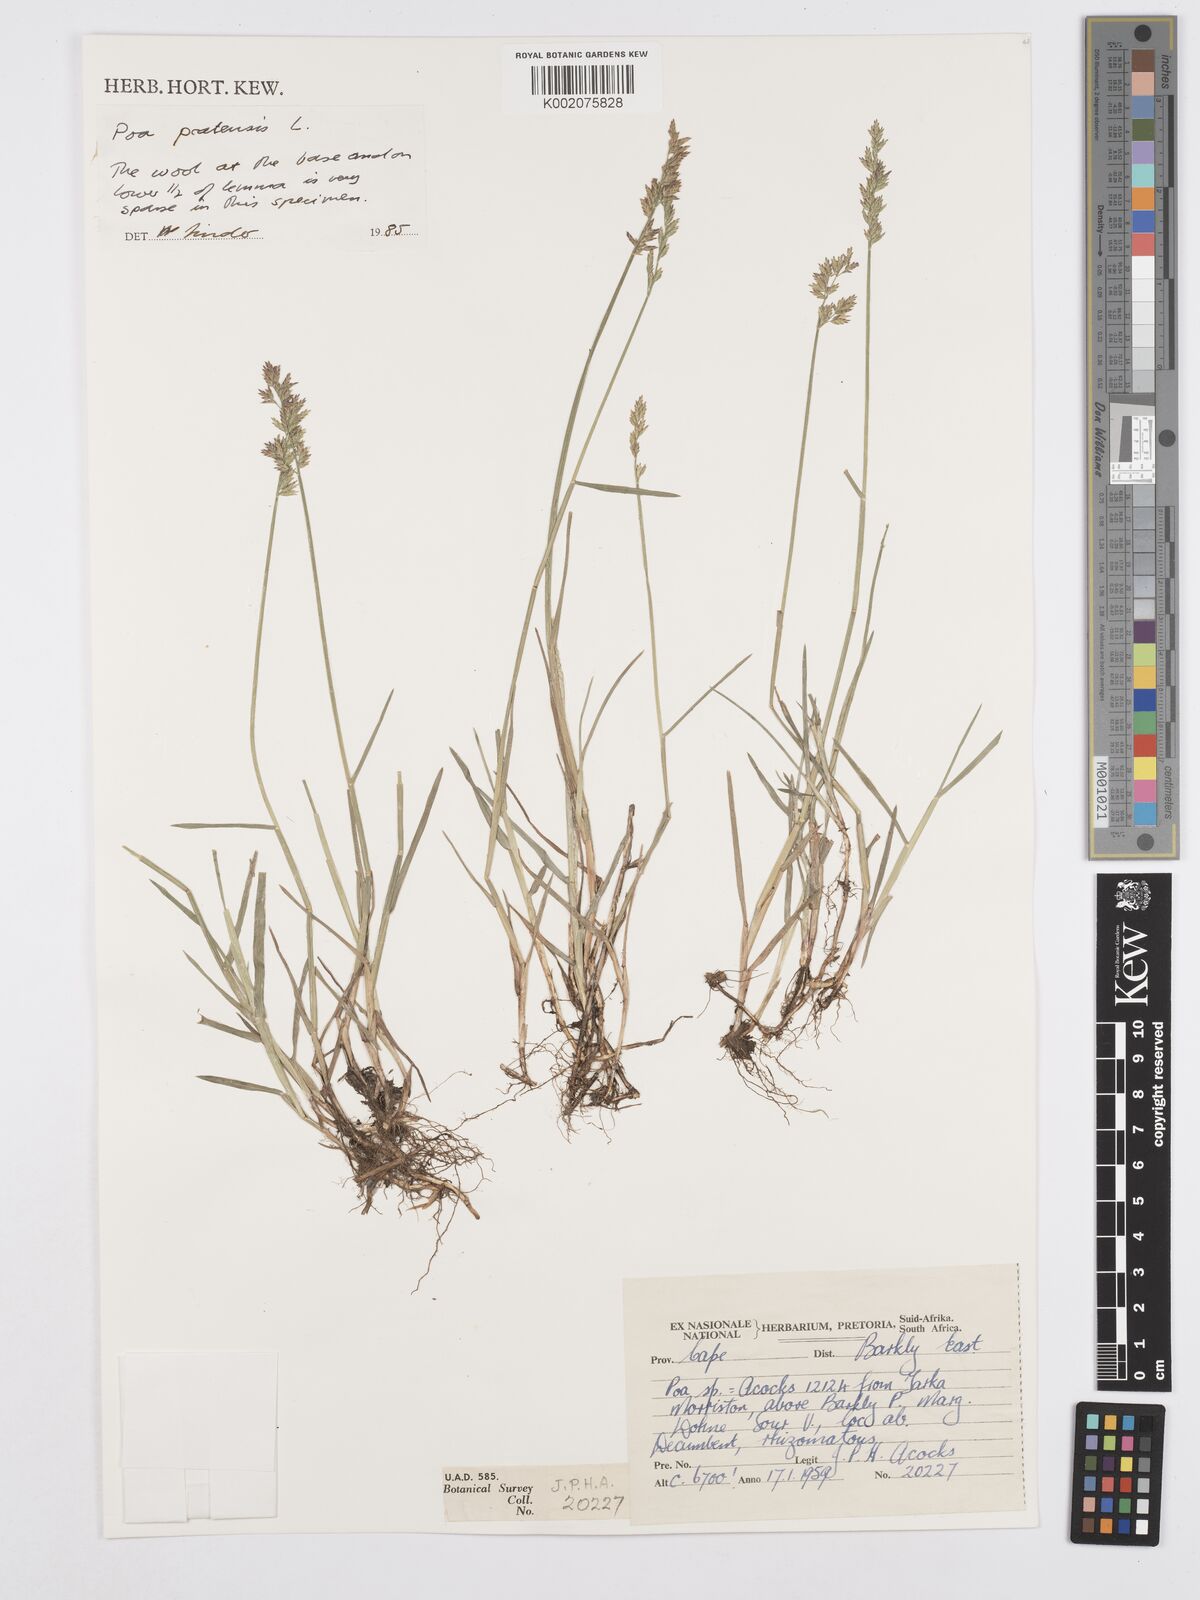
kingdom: Plantae
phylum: Tracheophyta
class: Liliopsida
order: Poales
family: Poaceae
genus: Poa
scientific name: Poa pratensis
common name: Kentucky bluegrass
